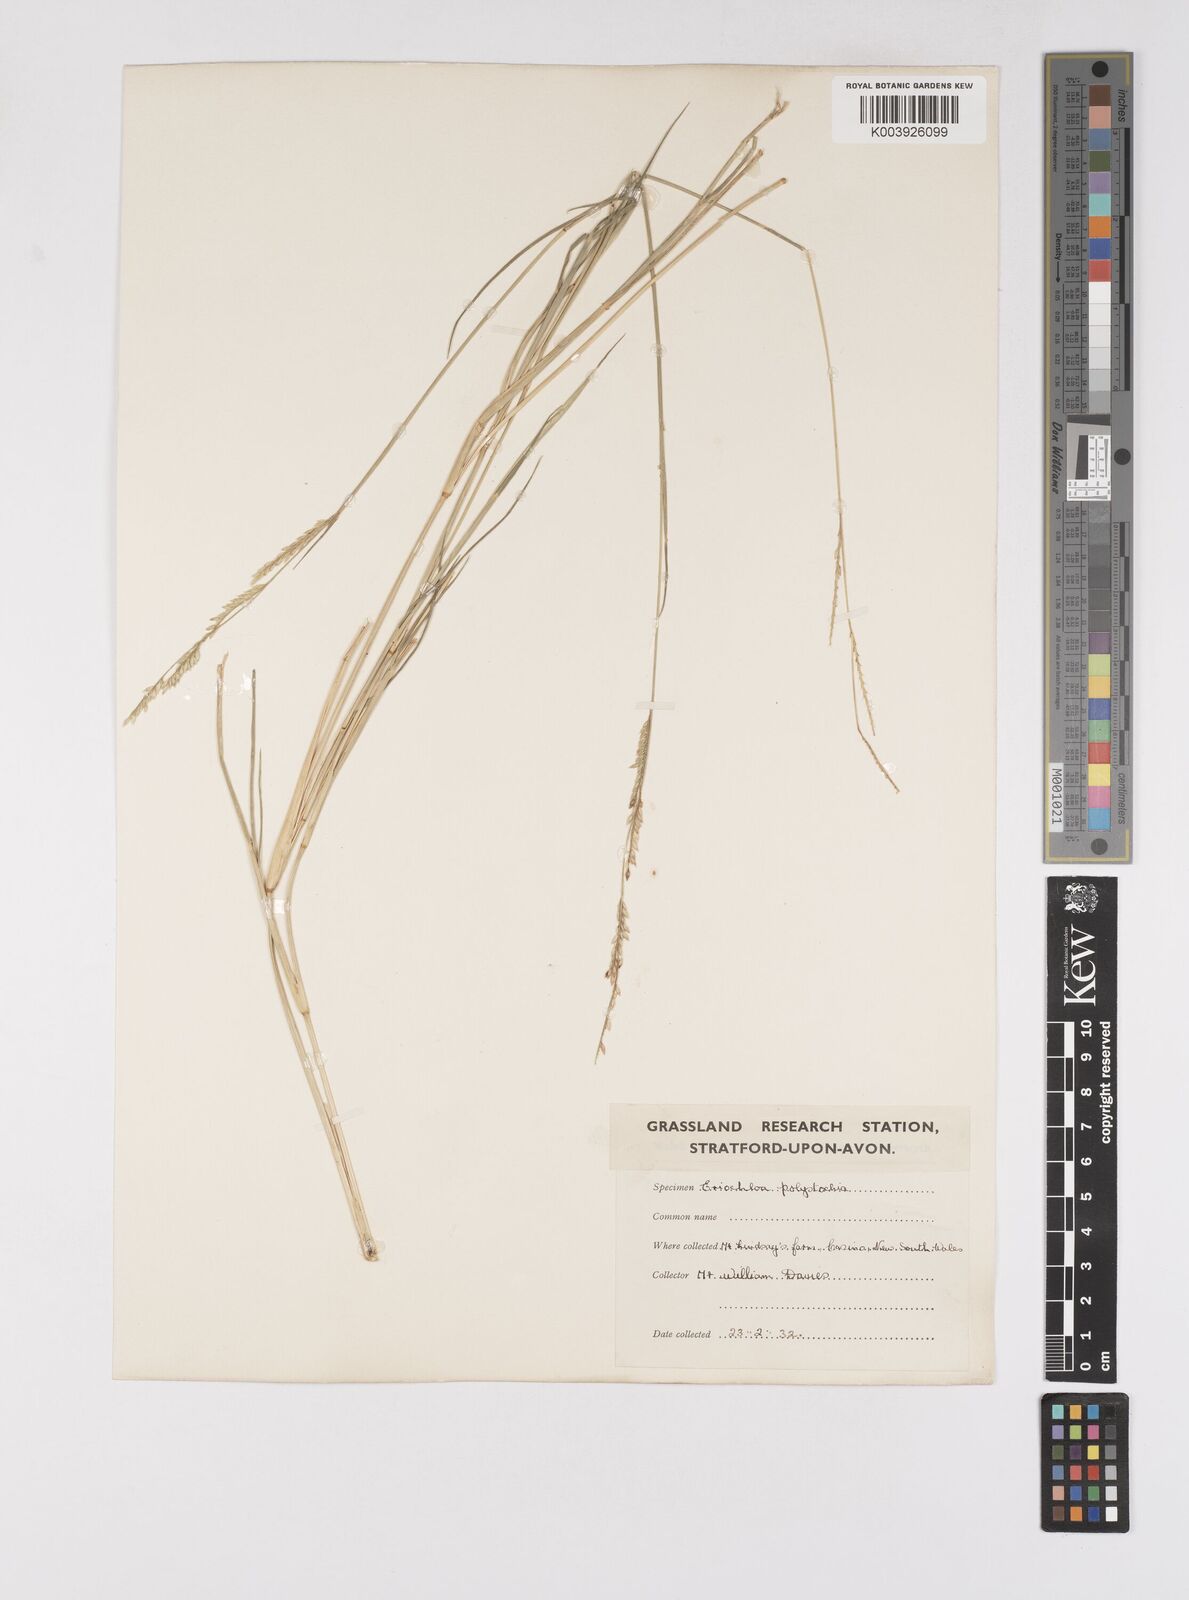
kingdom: Plantae
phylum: Tracheophyta
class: Liliopsida
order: Poales
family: Poaceae
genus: Eriochloa
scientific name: Eriochloa
